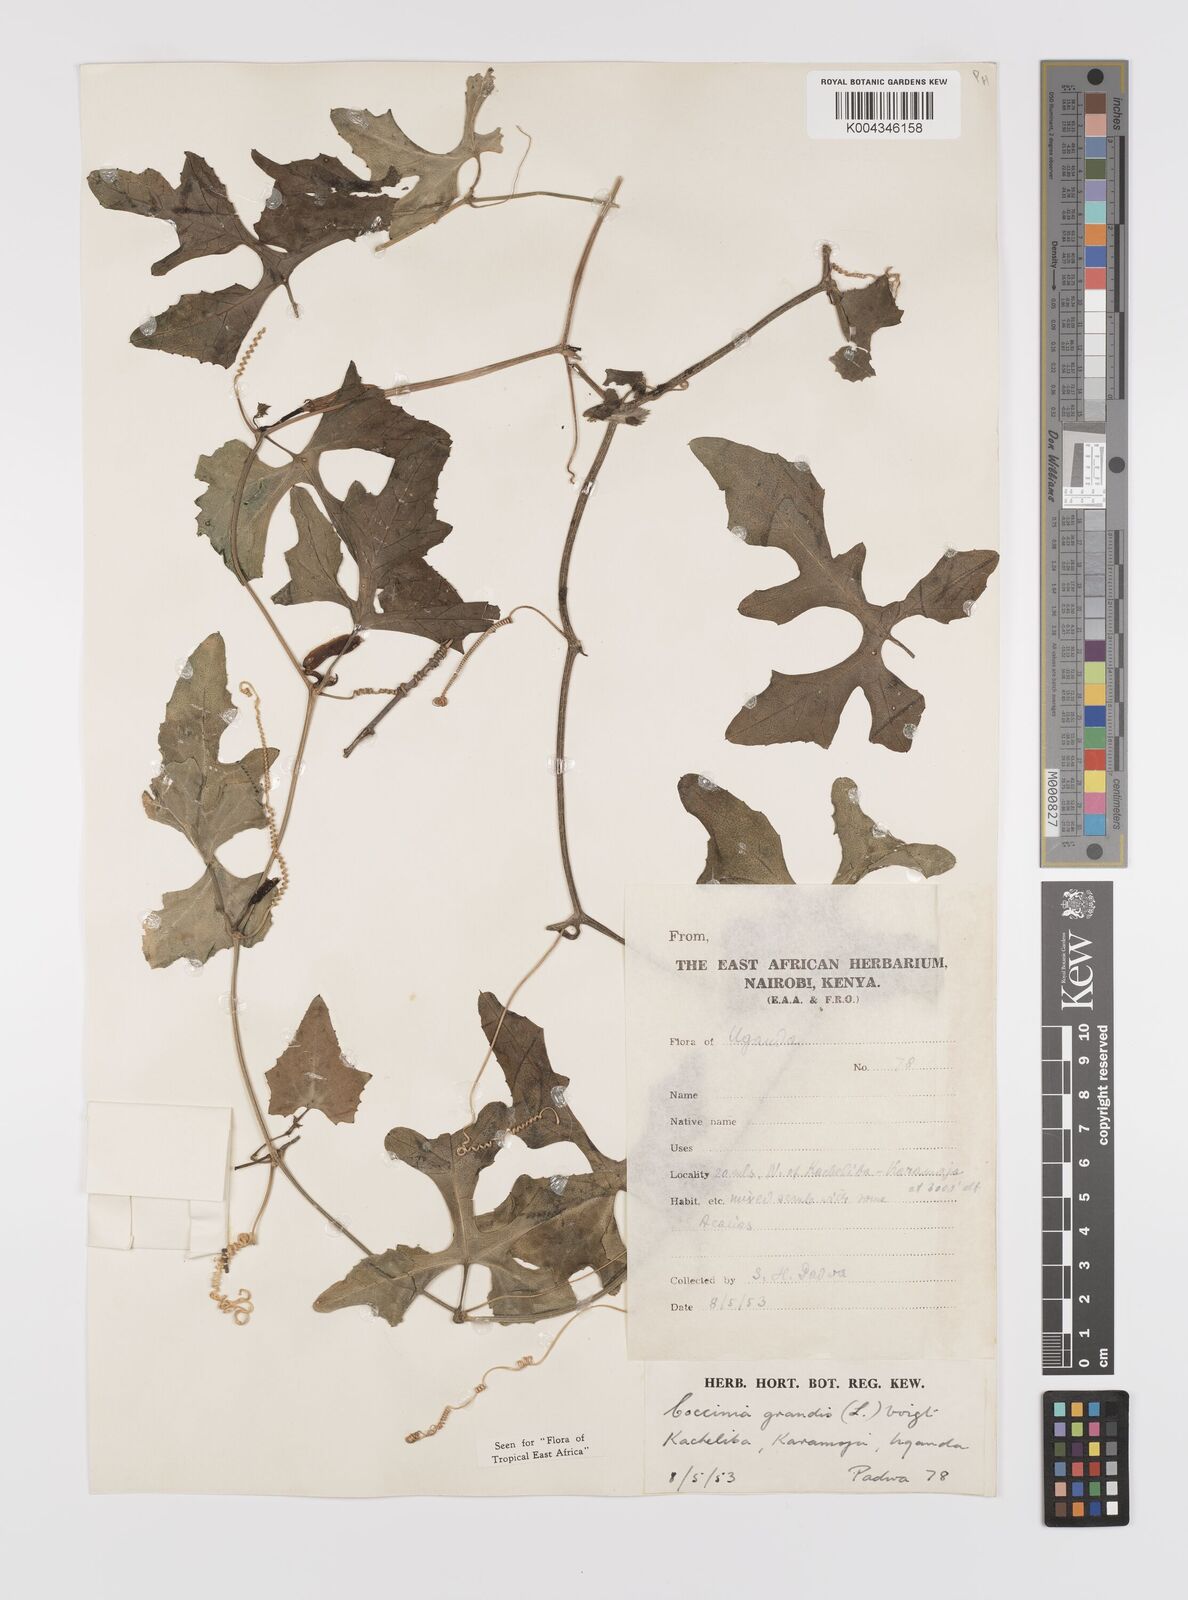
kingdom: Plantae
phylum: Tracheophyta
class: Magnoliopsida
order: Cucurbitales
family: Cucurbitaceae
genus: Coccinia
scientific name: Coccinia grandis
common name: Ivy gourd
